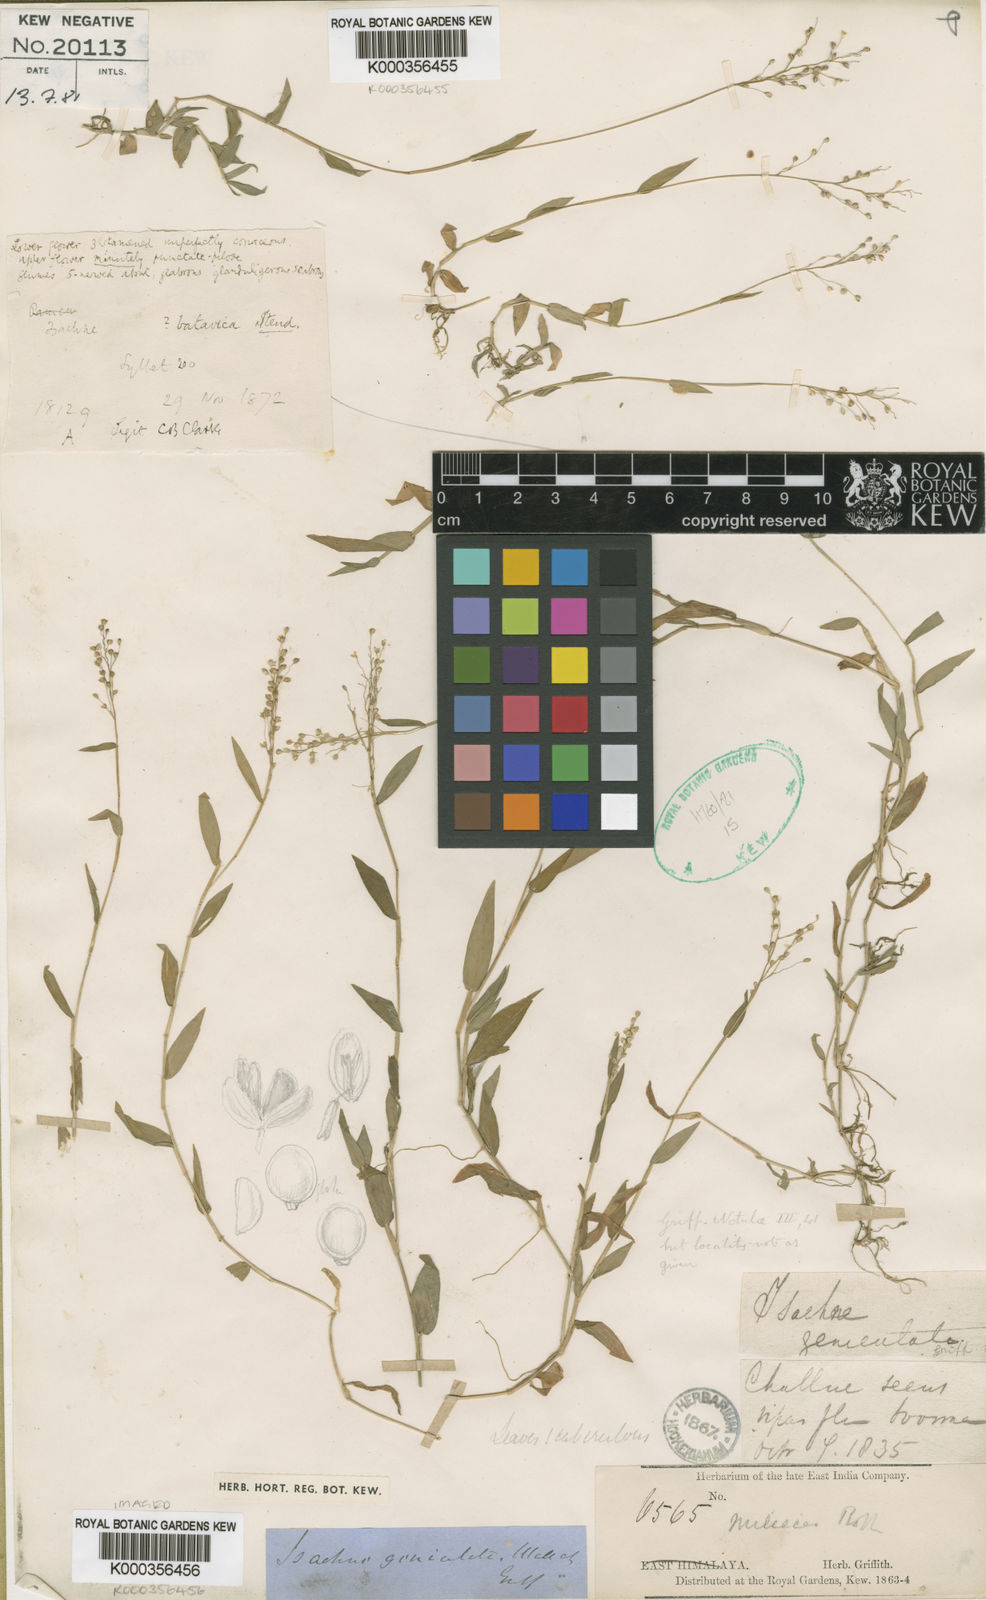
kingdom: Plantae
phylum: Tracheophyta
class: Liliopsida
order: Poales
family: Poaceae
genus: Isachne
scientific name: Isachne globosa
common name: Swamp millet
